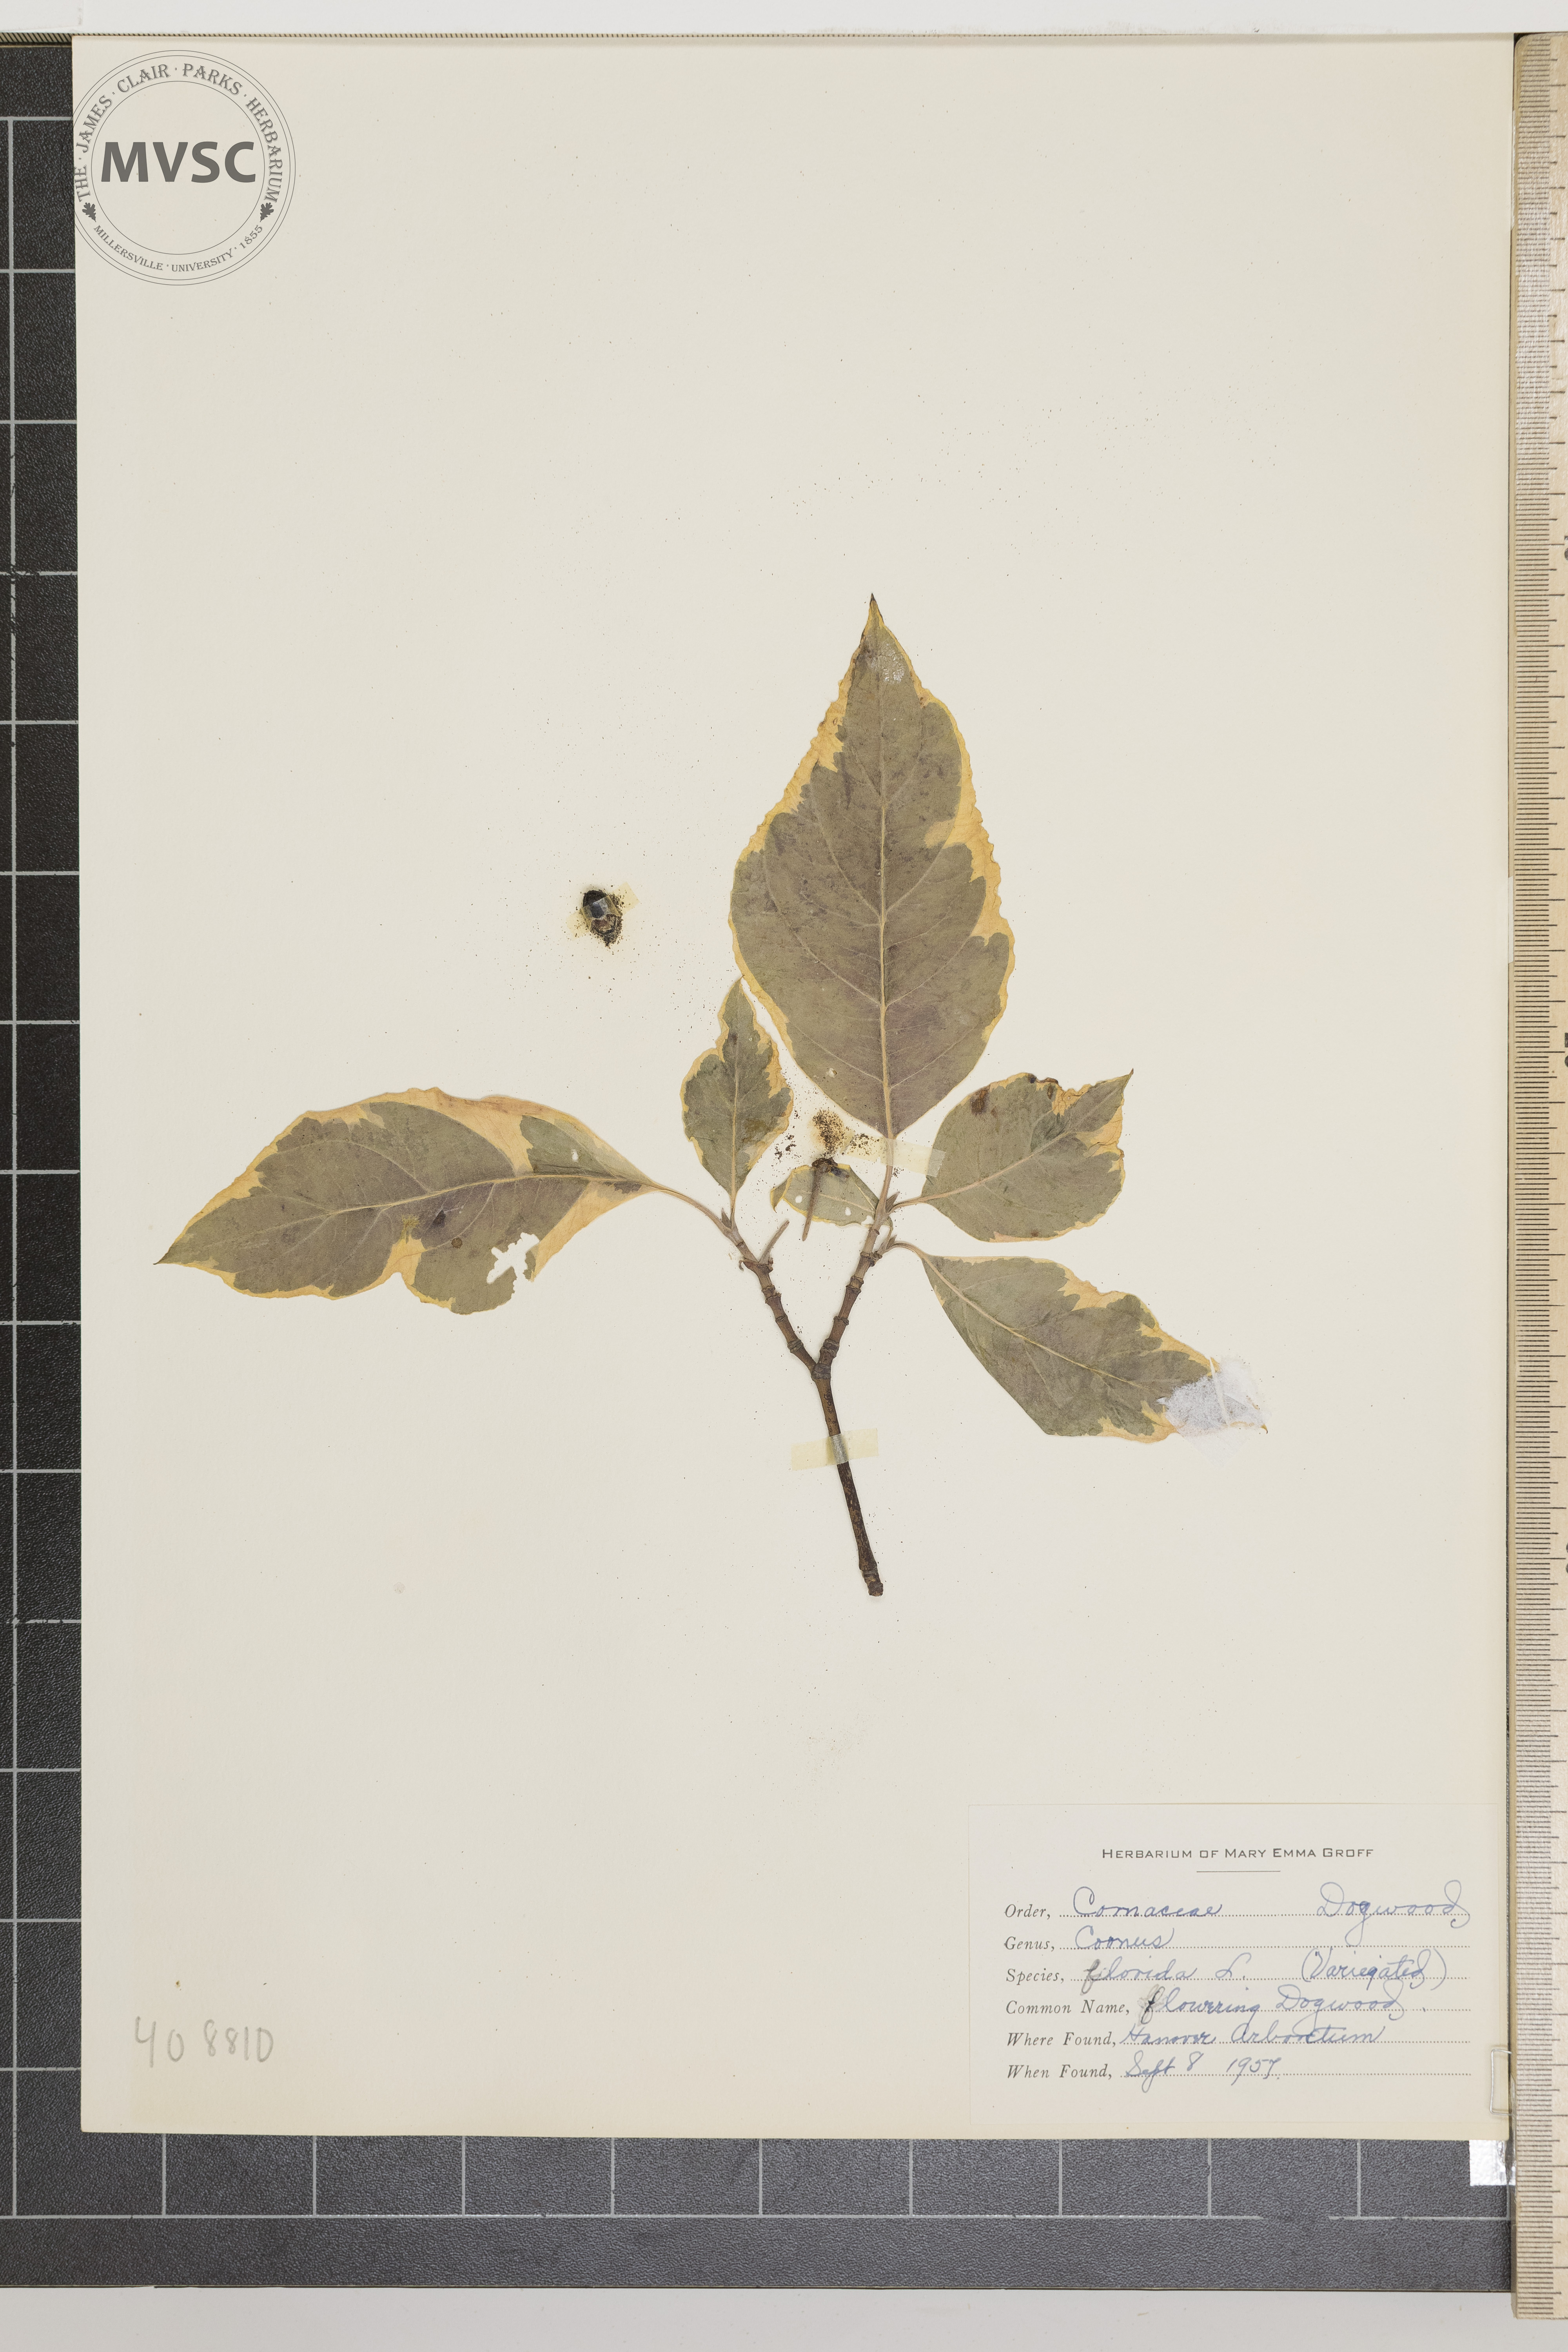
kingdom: Plantae
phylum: Tracheophyta
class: Magnoliopsida
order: Cornales
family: Cornaceae
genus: Cornus
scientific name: Cornus florida
